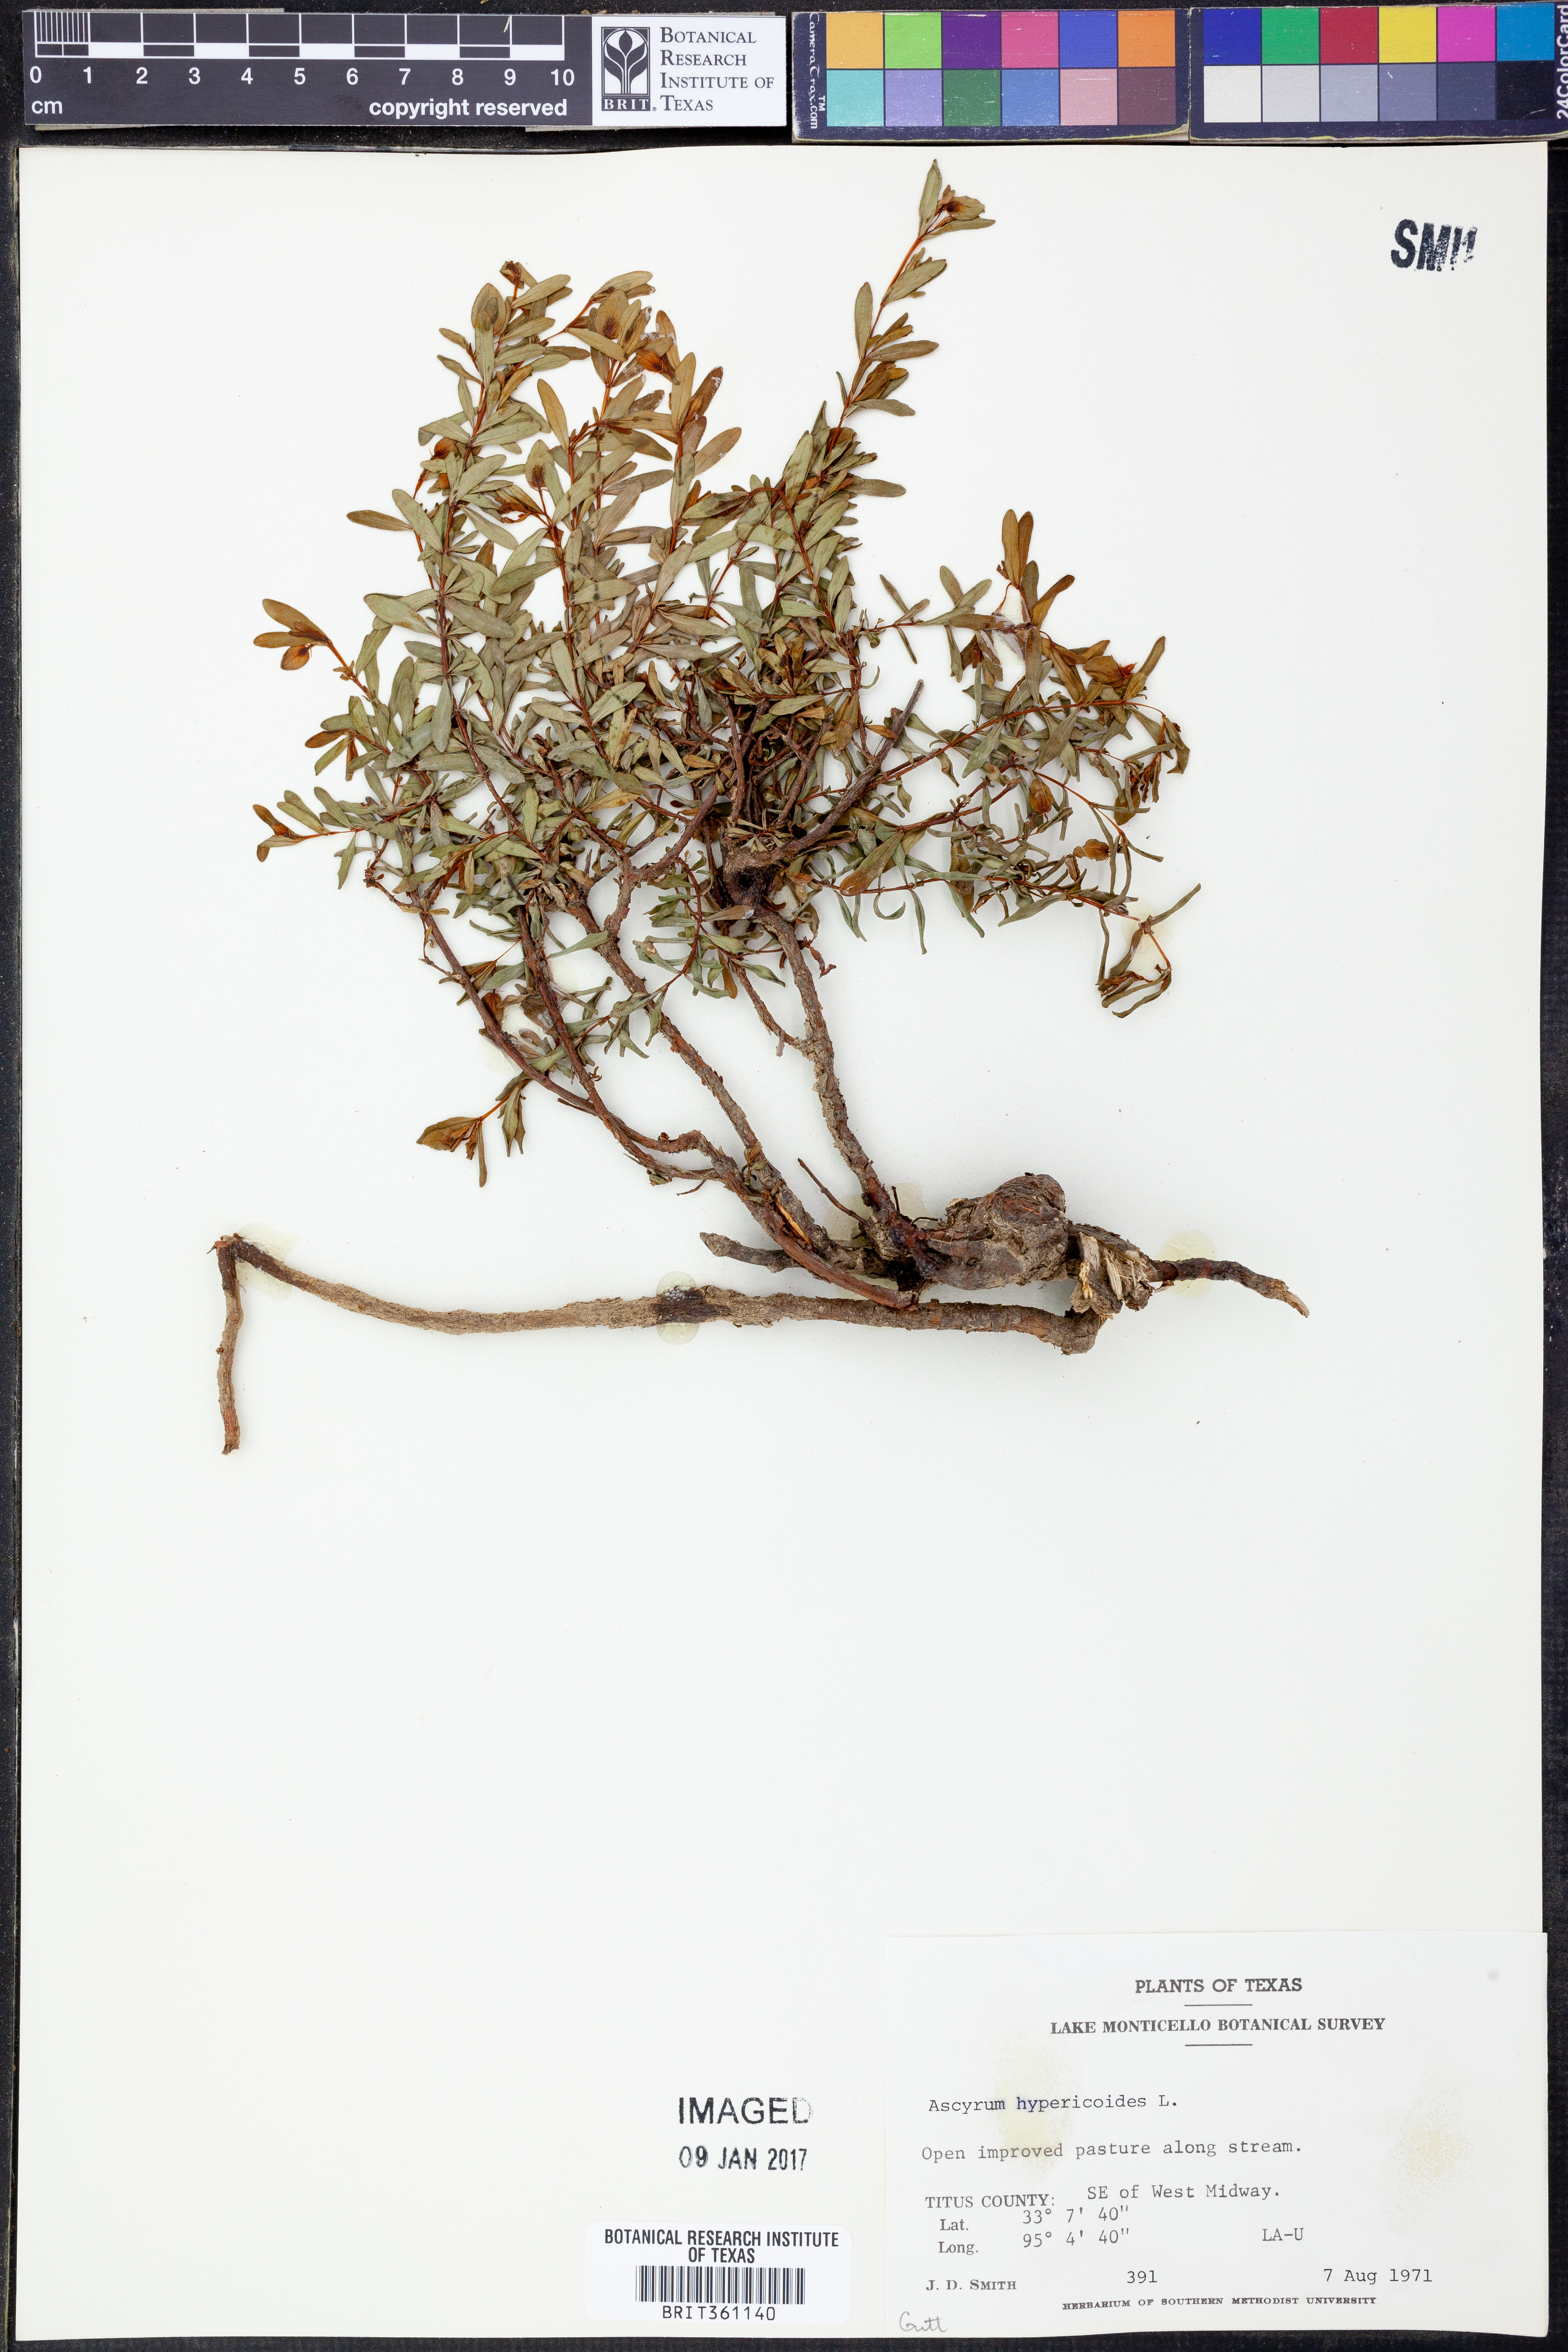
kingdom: Plantae
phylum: Tracheophyta
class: Magnoliopsida
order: Malpighiales
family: Hypericaceae
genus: Hypericum
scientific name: Hypericum hypericoides
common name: St. andrew's cross
